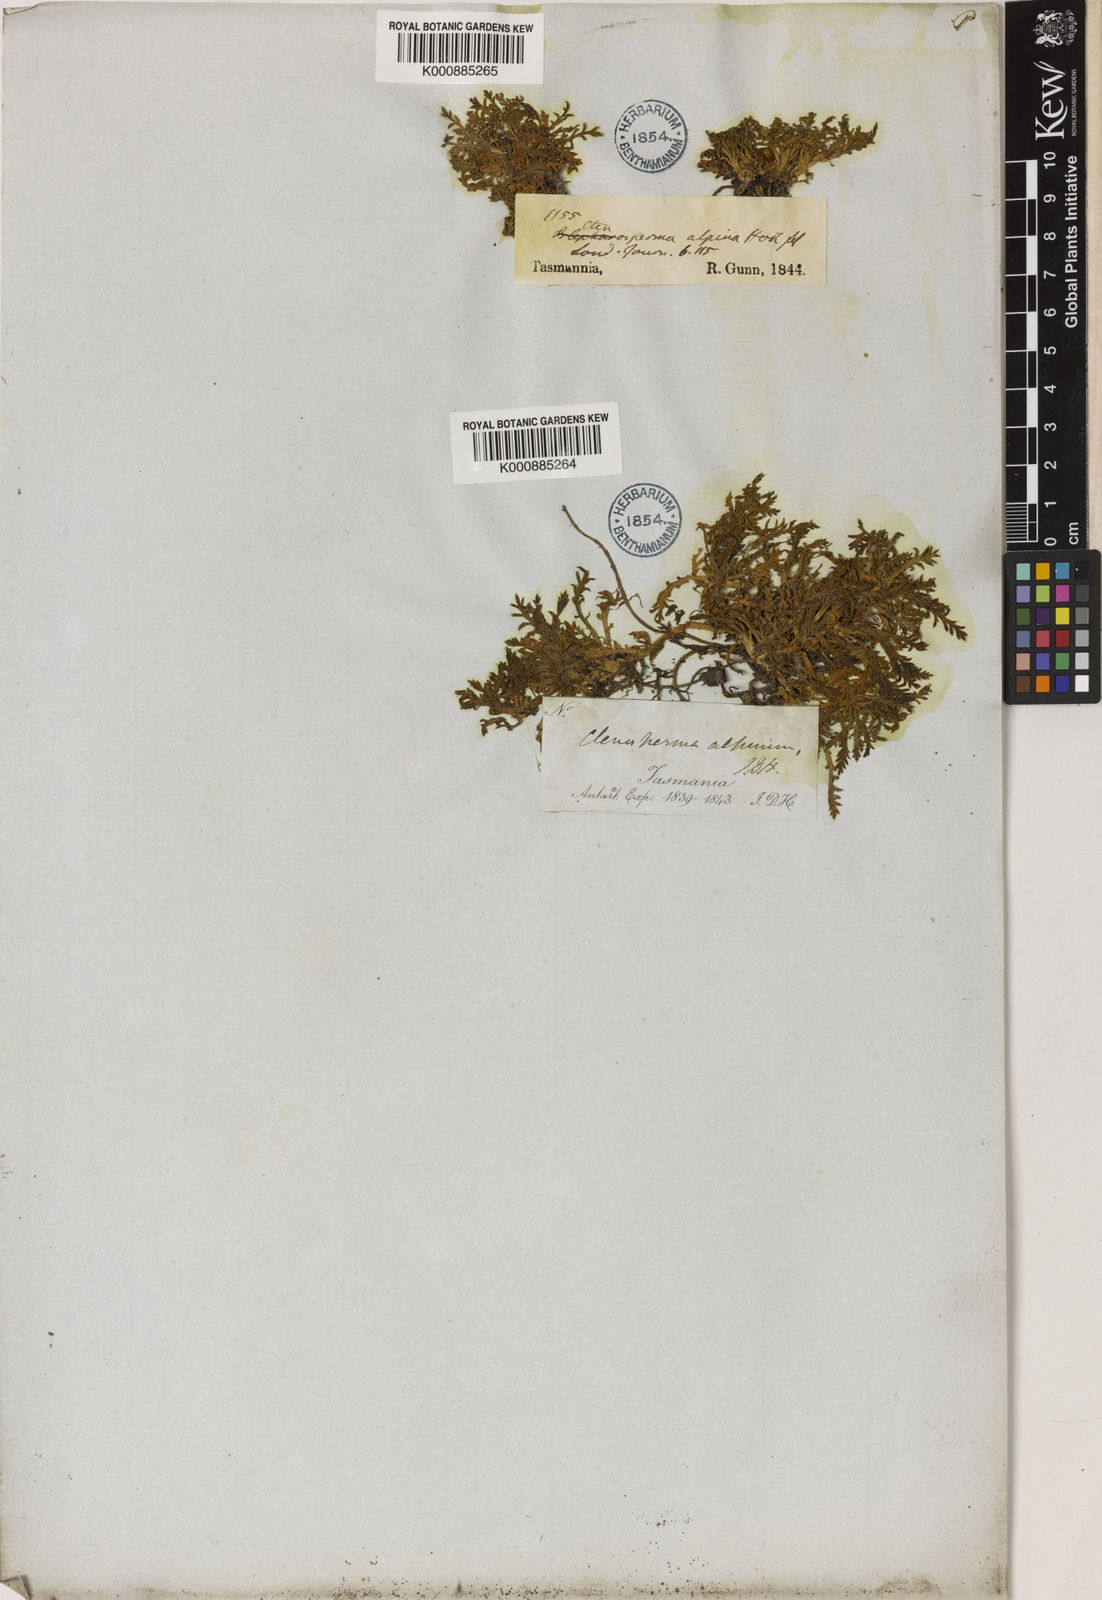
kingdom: Plantae
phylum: Tracheophyta
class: Magnoliopsida
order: Asterales
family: Asteraceae
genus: Cotula
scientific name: Cotula alpina
